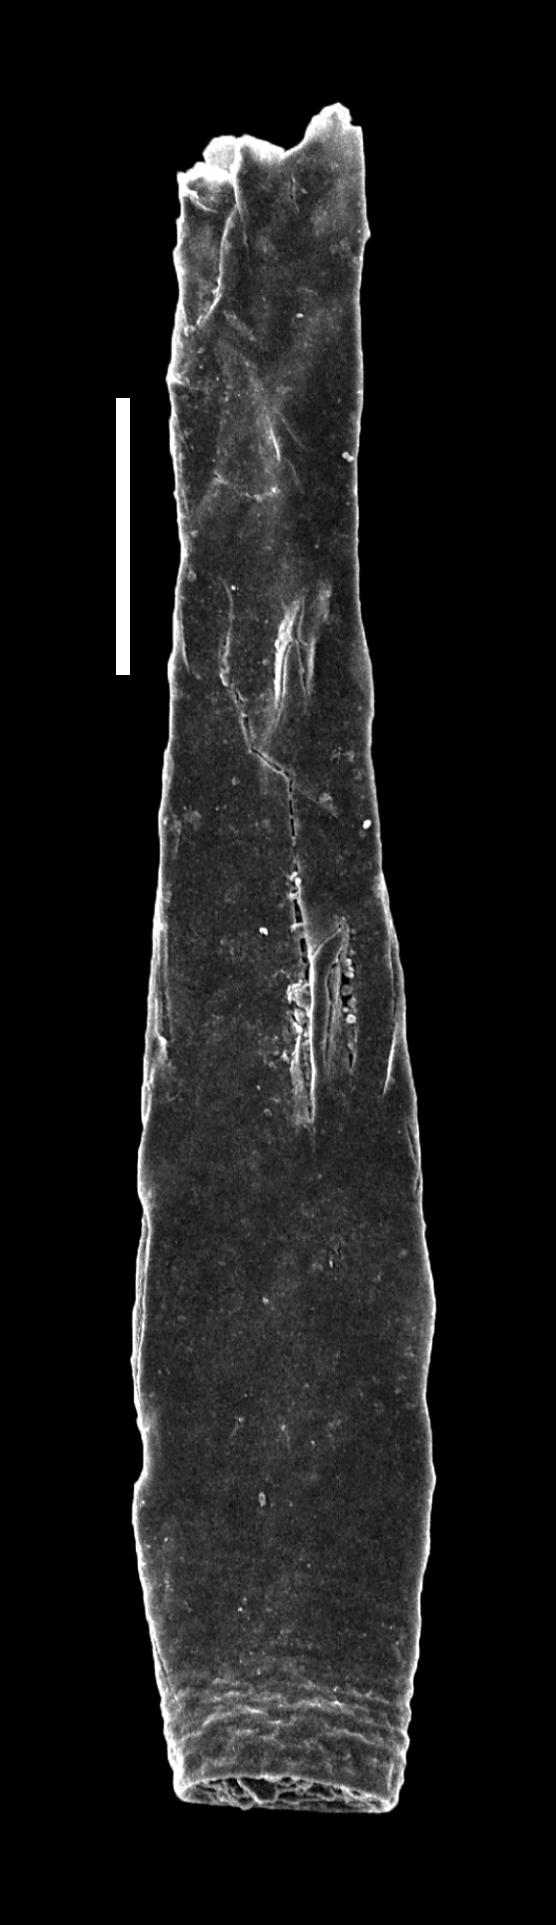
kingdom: Animalia
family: Conochitinidae
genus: Conochitina
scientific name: Conochitina
